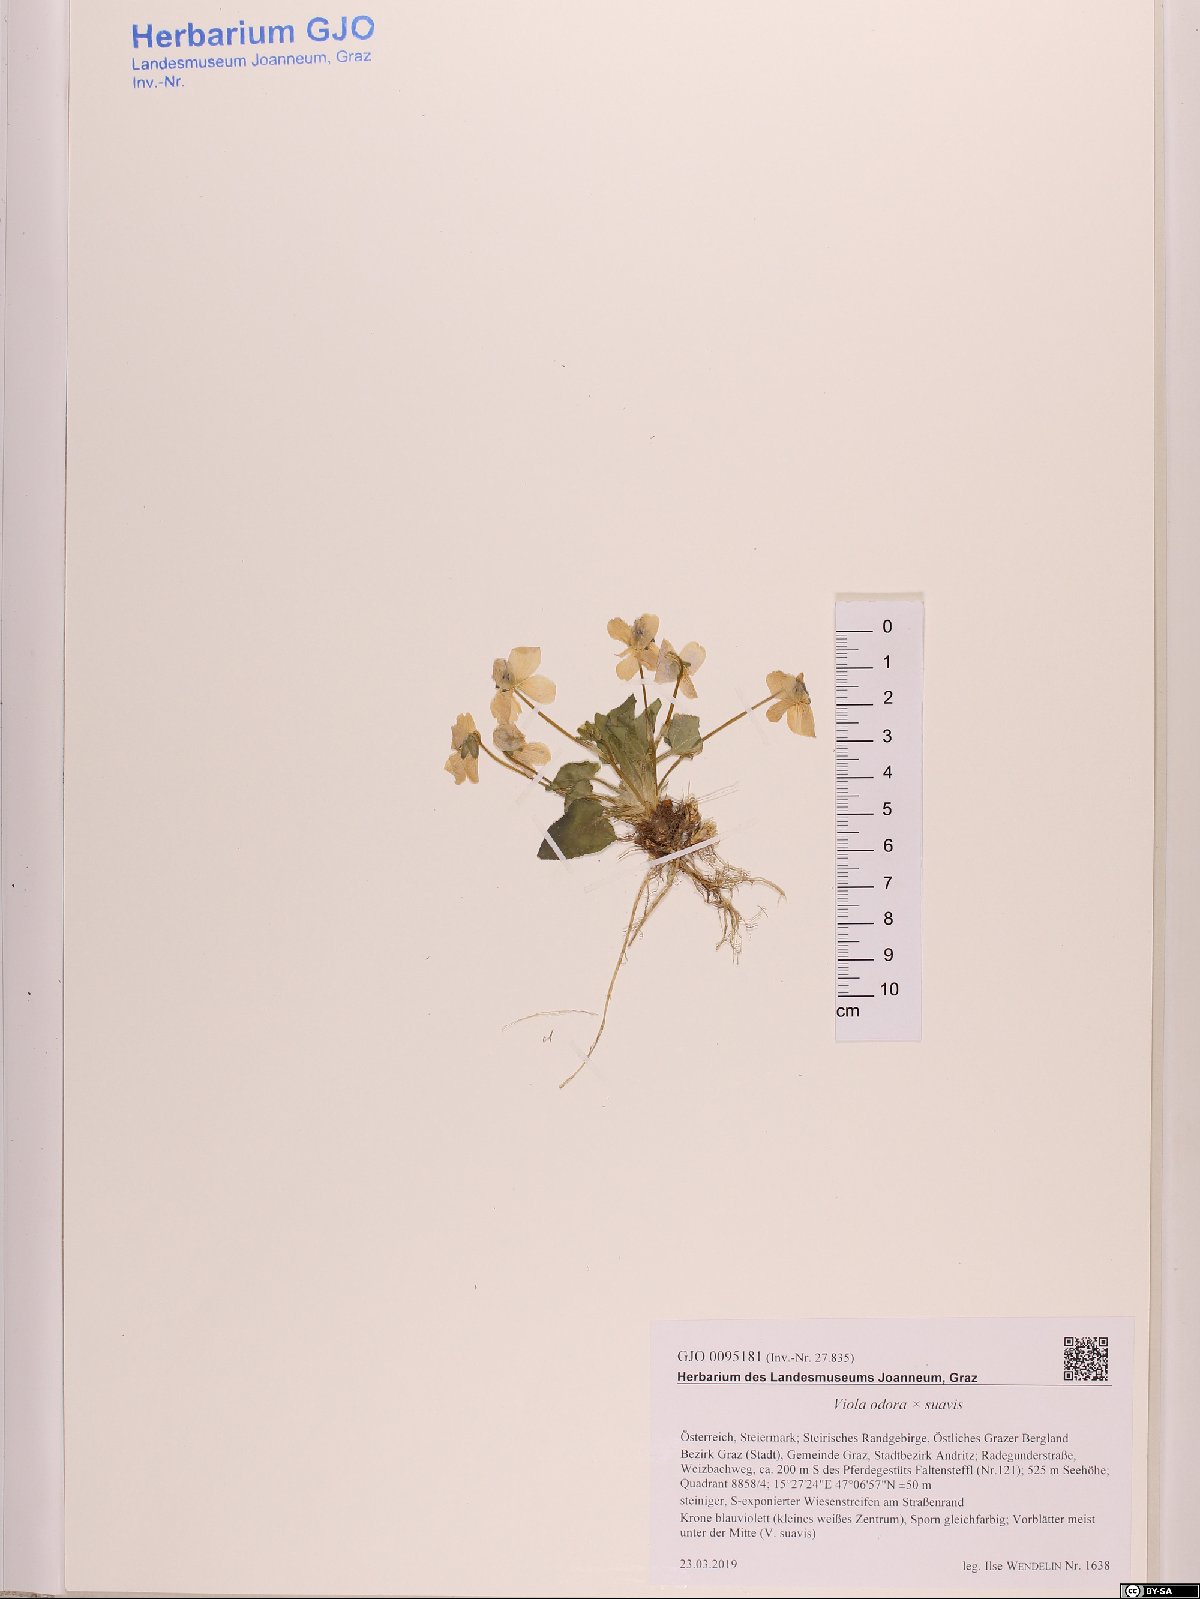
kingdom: Plantae
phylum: Tracheophyta
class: Magnoliopsida
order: Malpighiales
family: Violaceae
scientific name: Violaceae
